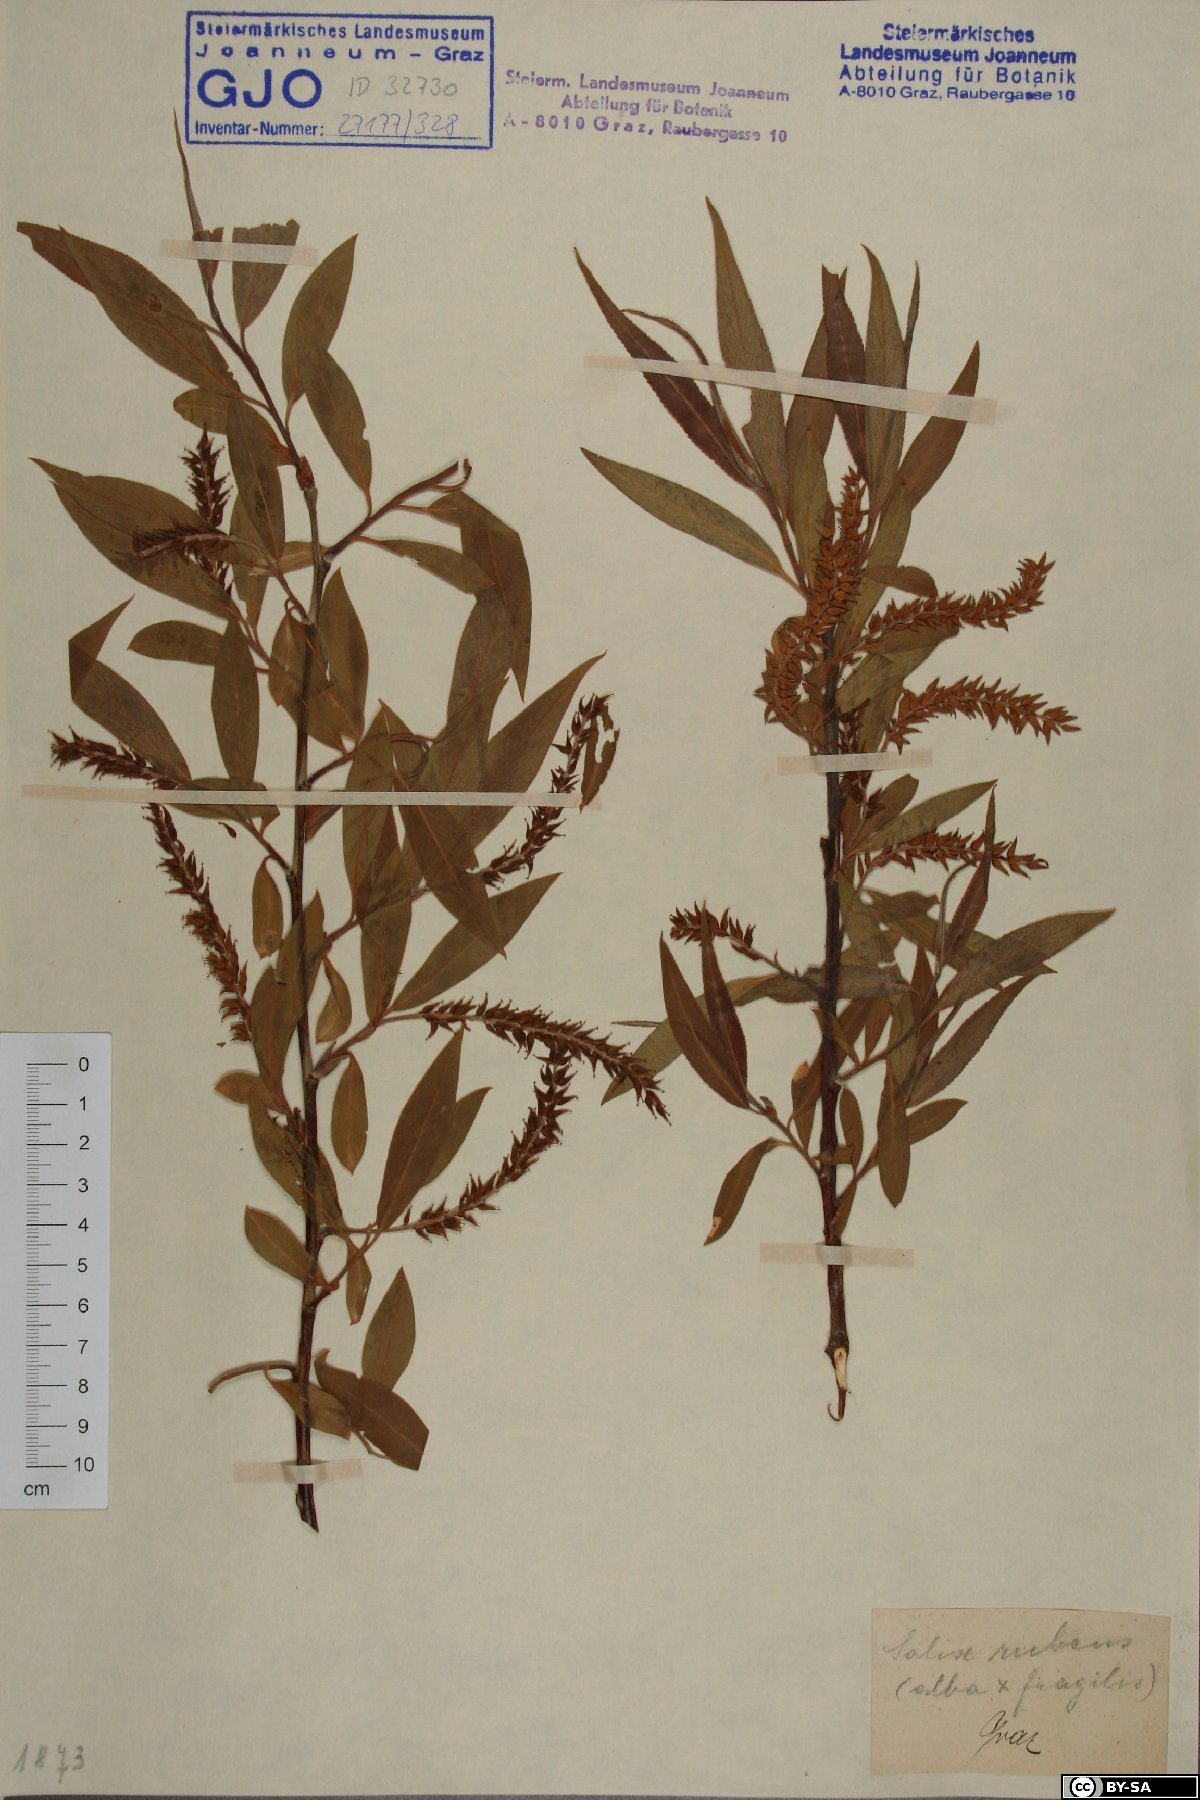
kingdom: Plantae
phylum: Tracheophyta
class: Magnoliopsida
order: Malpighiales
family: Salicaceae
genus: Salix
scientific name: Salix rubens
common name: Hybrid crack willow
